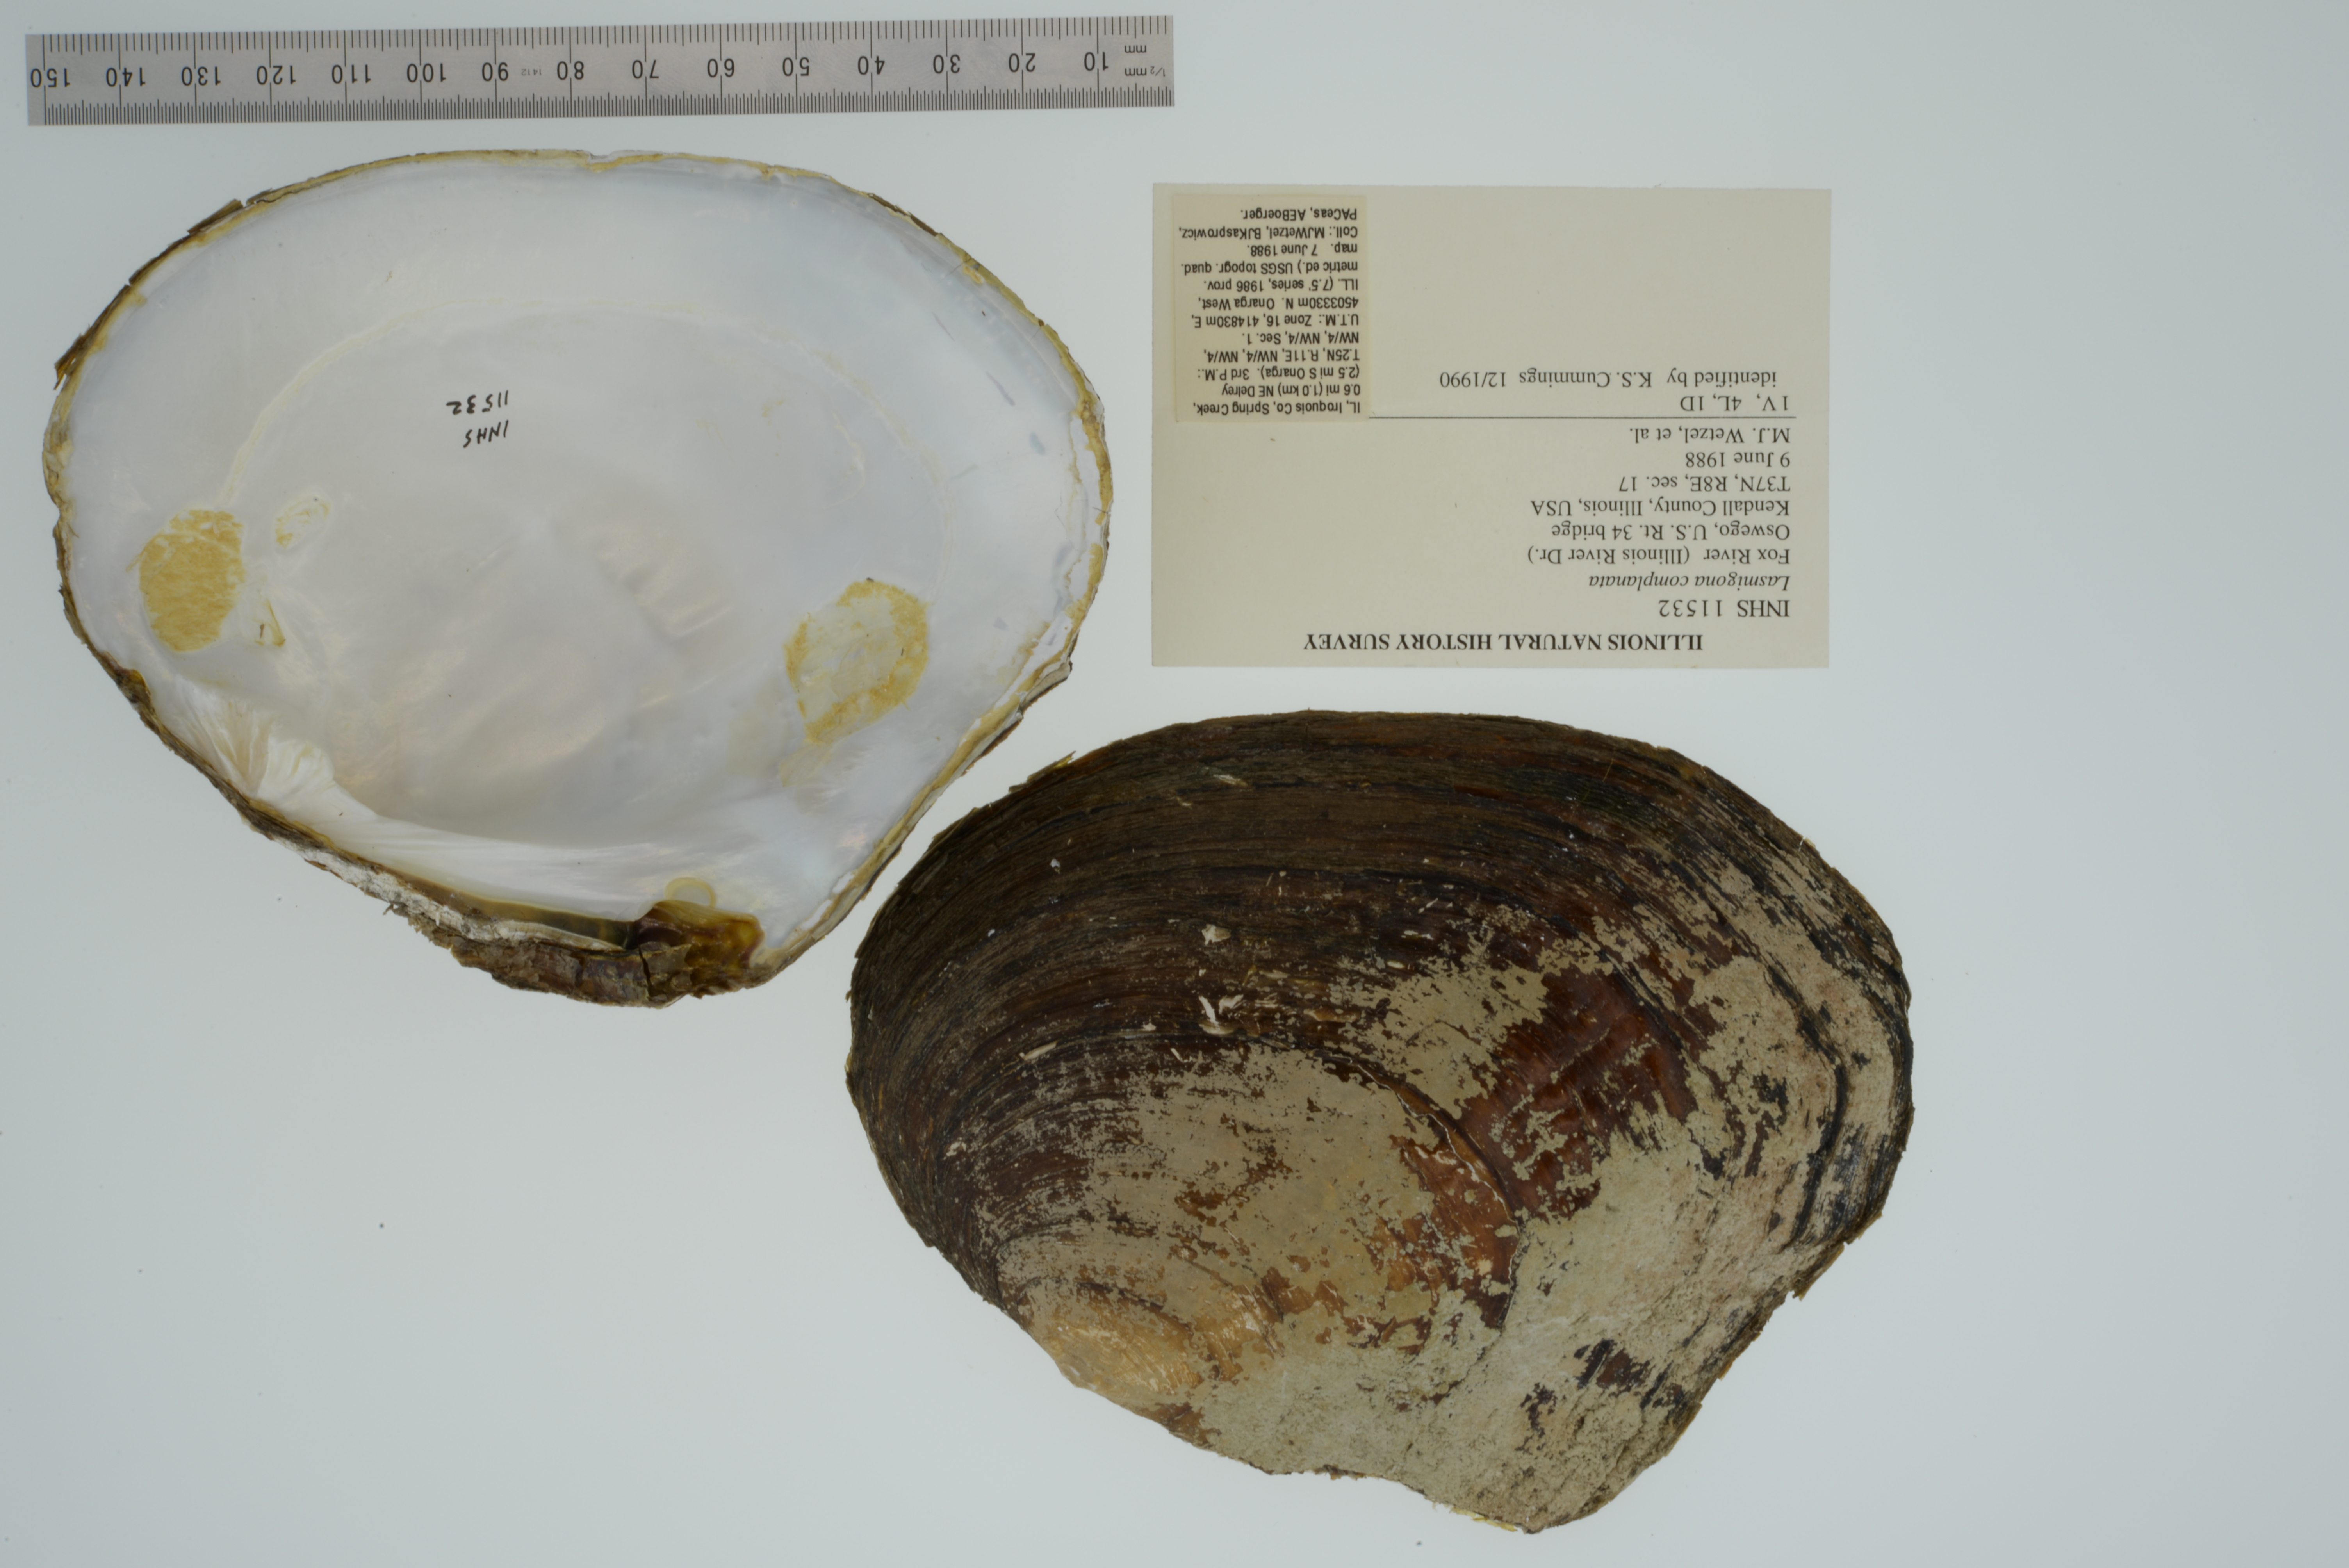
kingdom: Animalia
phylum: Mollusca
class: Bivalvia
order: Unionida
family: Unionidae
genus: Lasmigona
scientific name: Lasmigona complanata
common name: White heelsplitter
